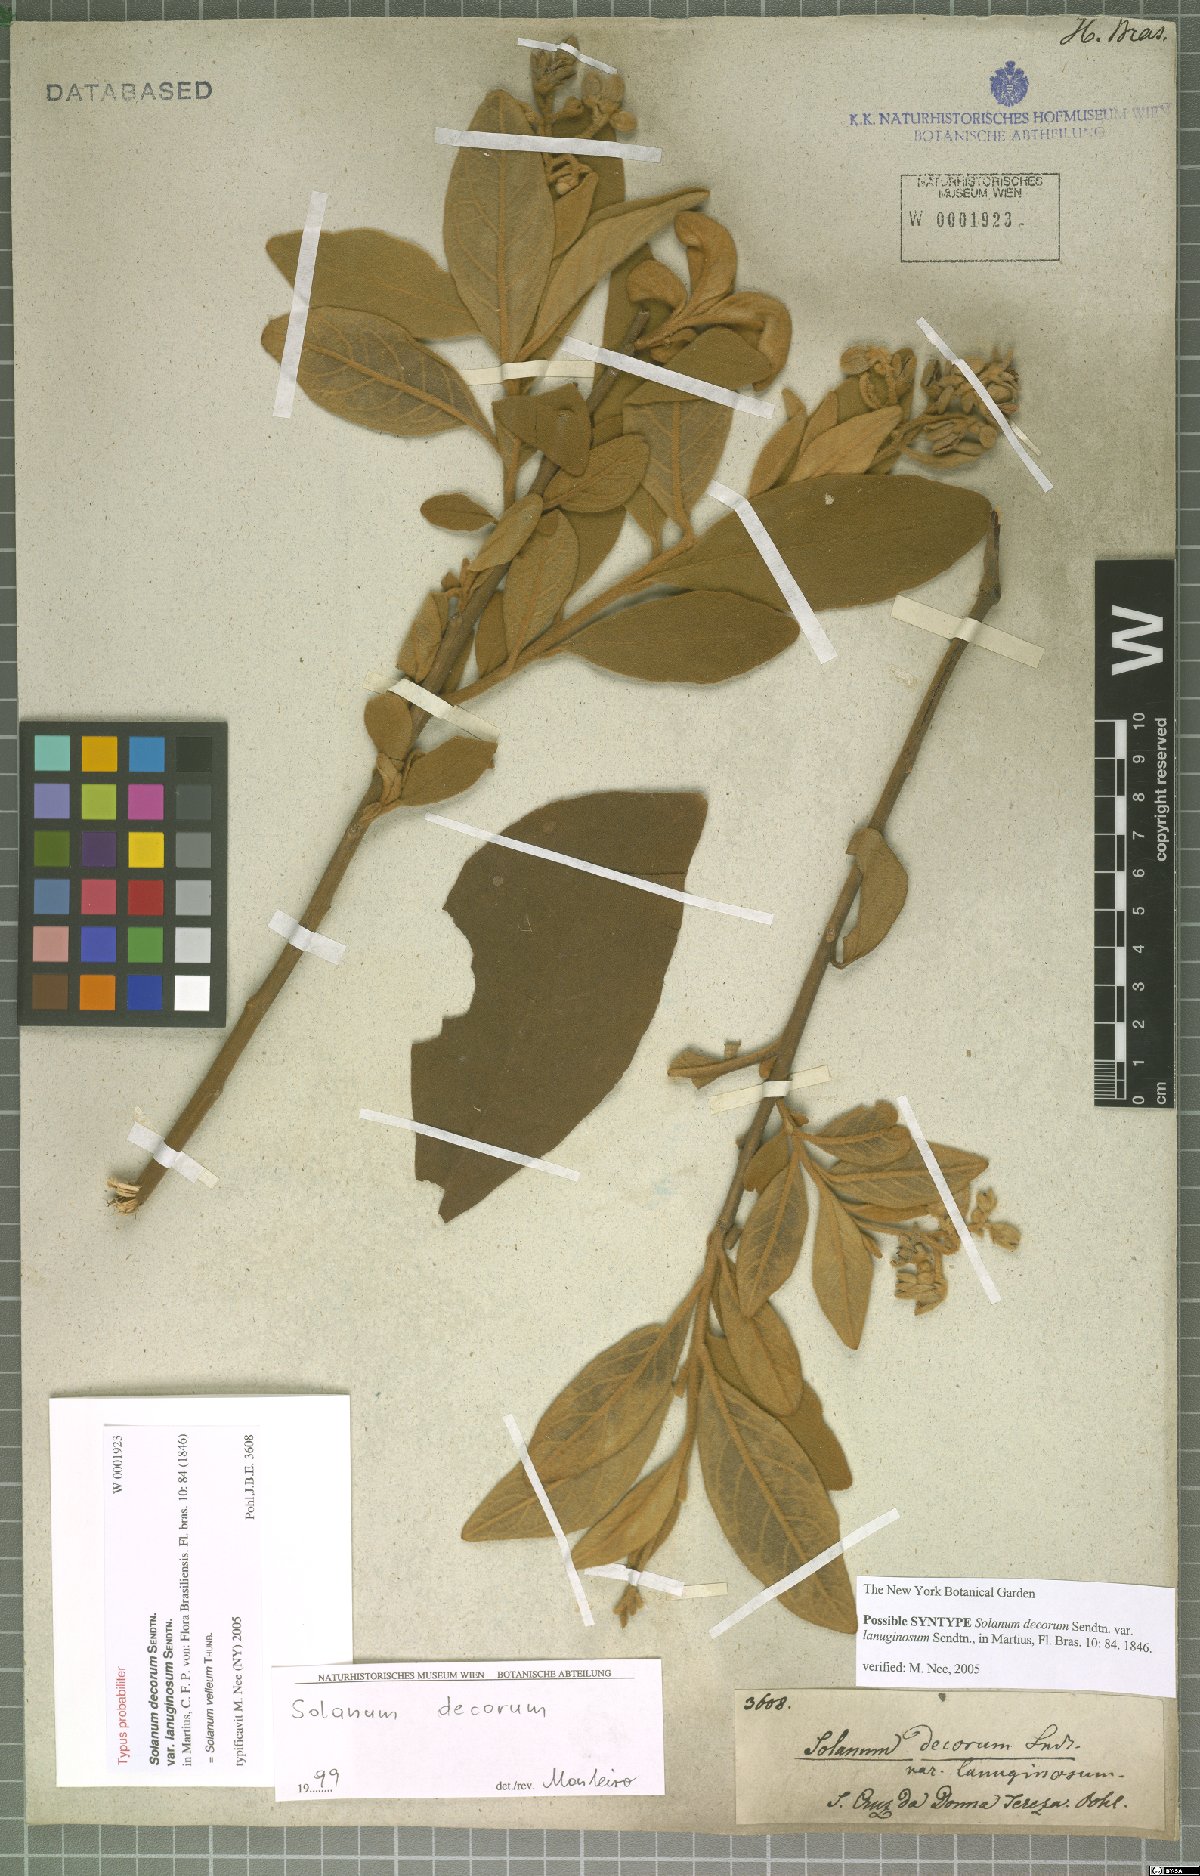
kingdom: Plantae
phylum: Tracheophyta
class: Magnoliopsida
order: Solanales
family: Solanaceae
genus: Solanum
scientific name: Solanum velleum
